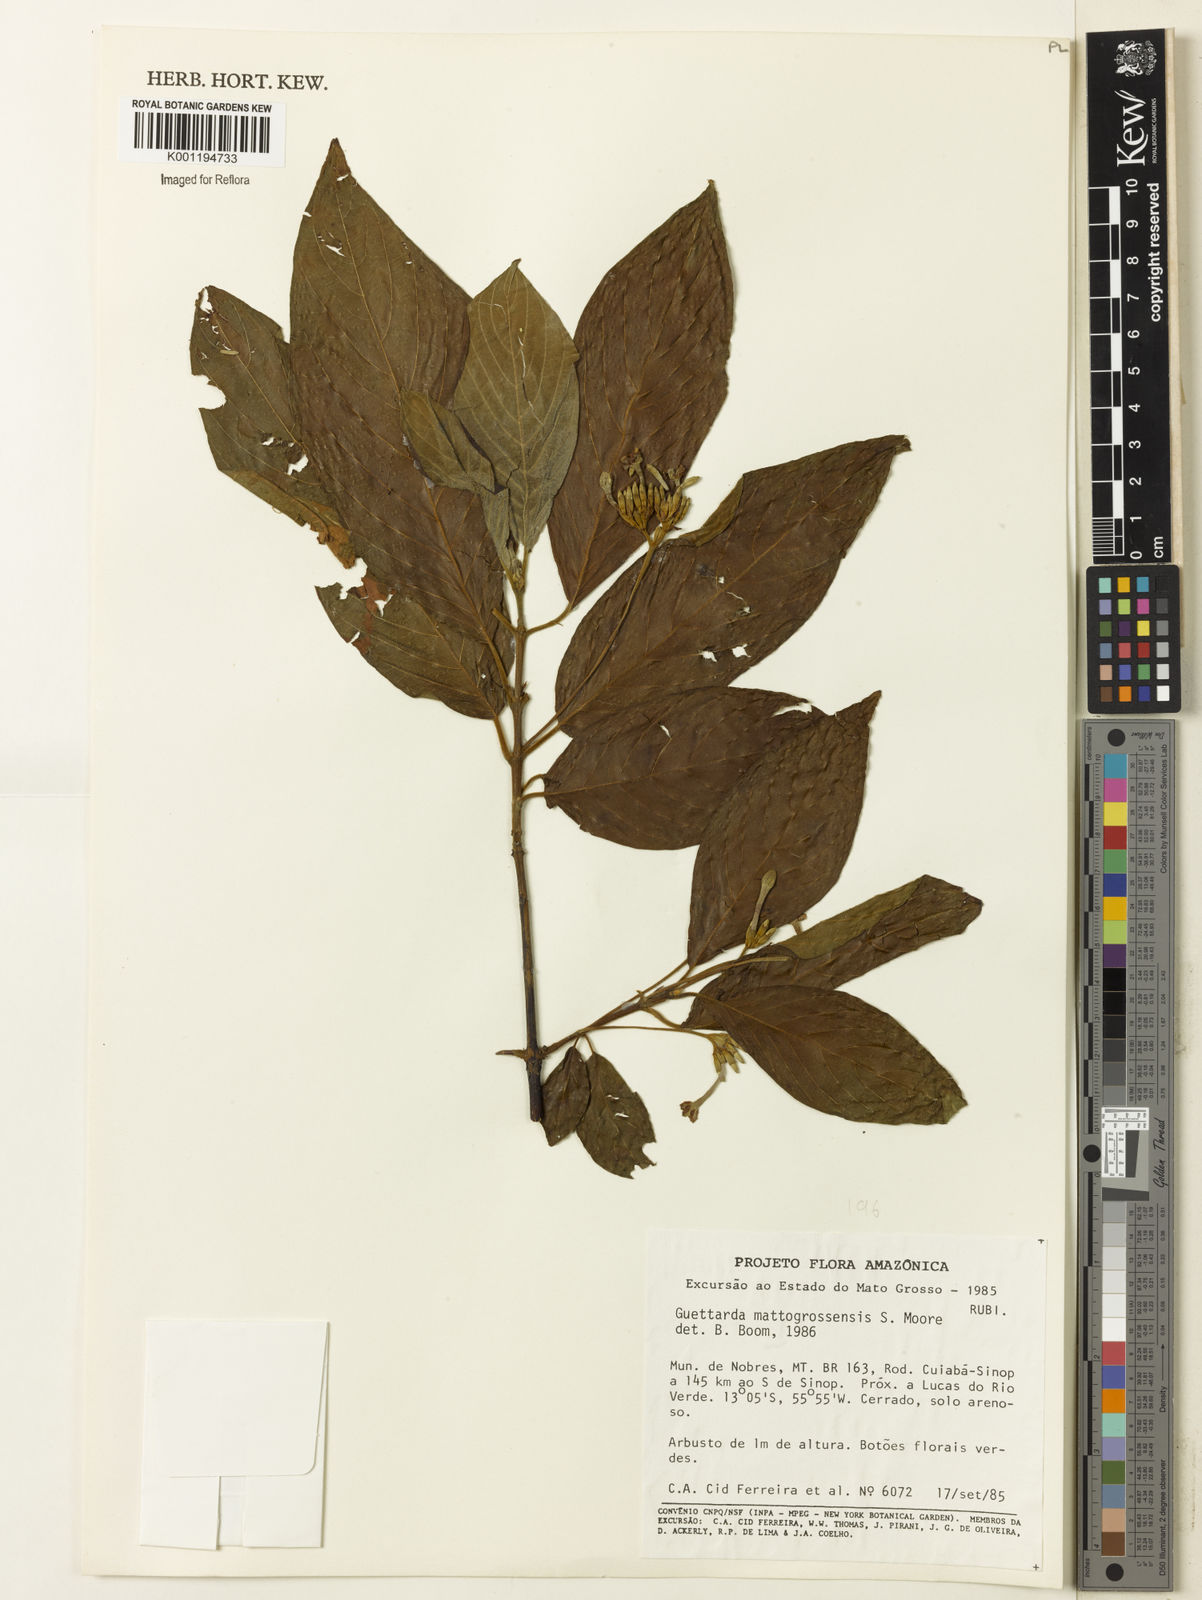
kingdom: Plantae
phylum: Tracheophyta
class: Magnoliopsida
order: Gentianales
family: Rubiaceae
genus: Guettarda
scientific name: Guettarda mattogrossensis
